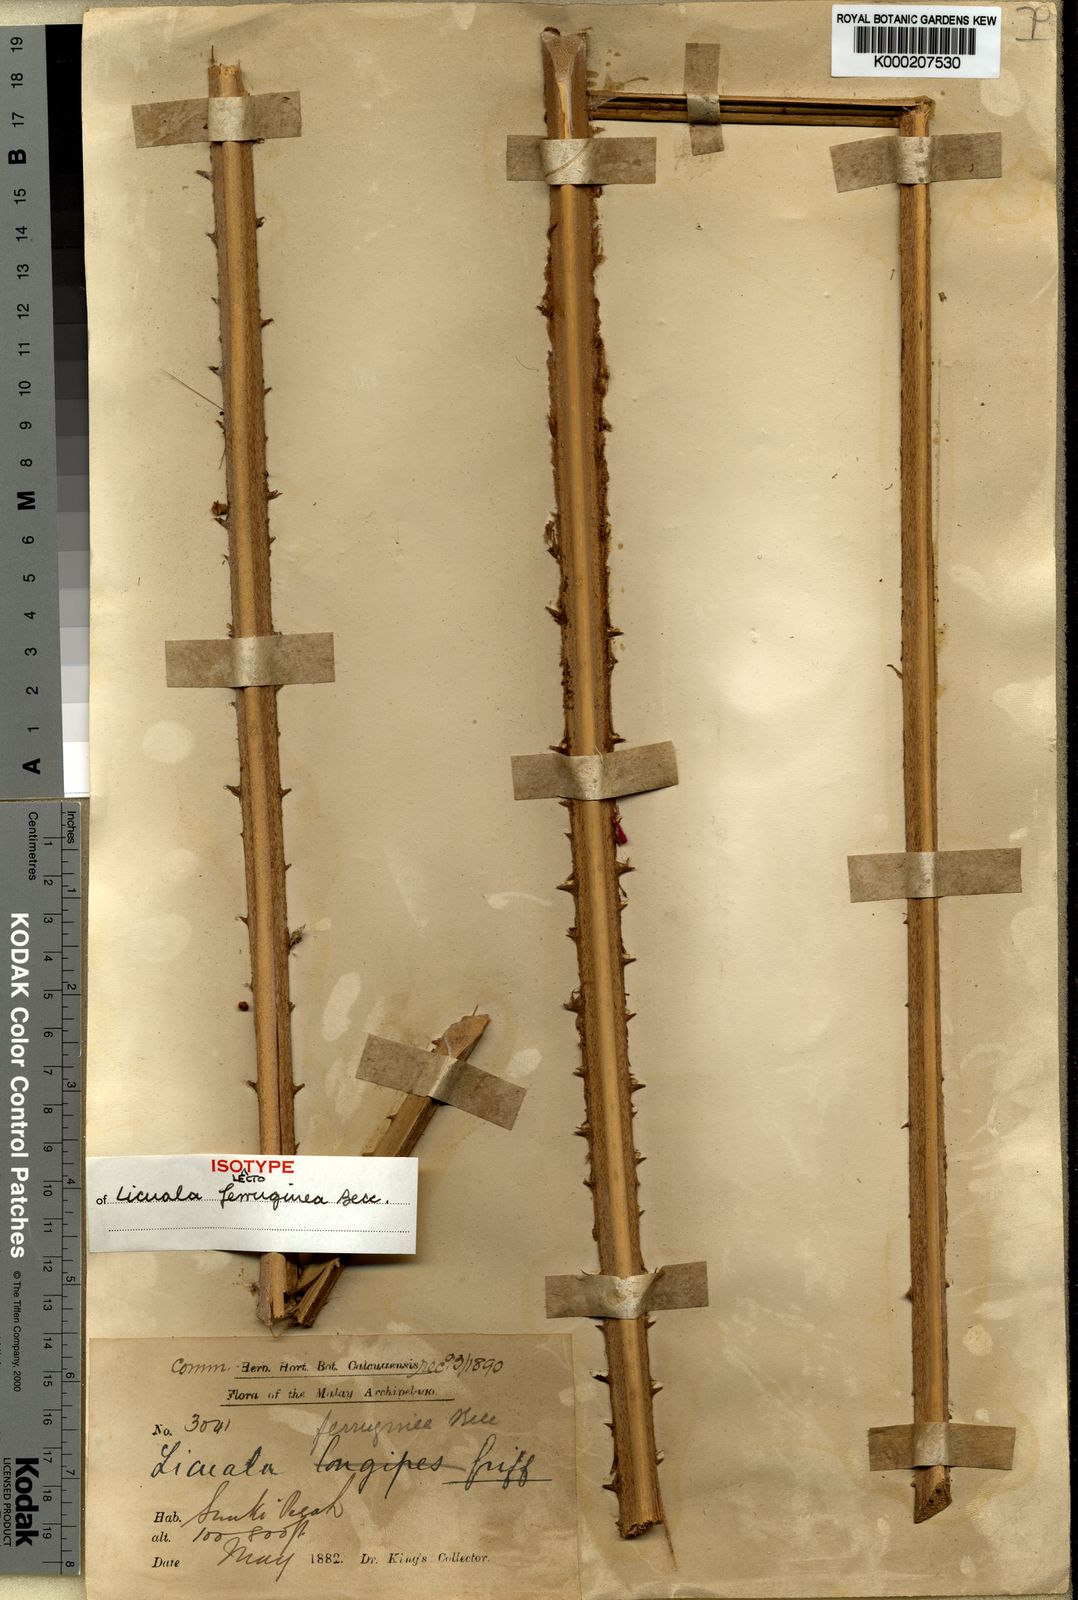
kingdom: Plantae
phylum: Tracheophyta
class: Liliopsida
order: Arecales
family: Arecaceae
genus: Licuala
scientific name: Licuala ferruginea
